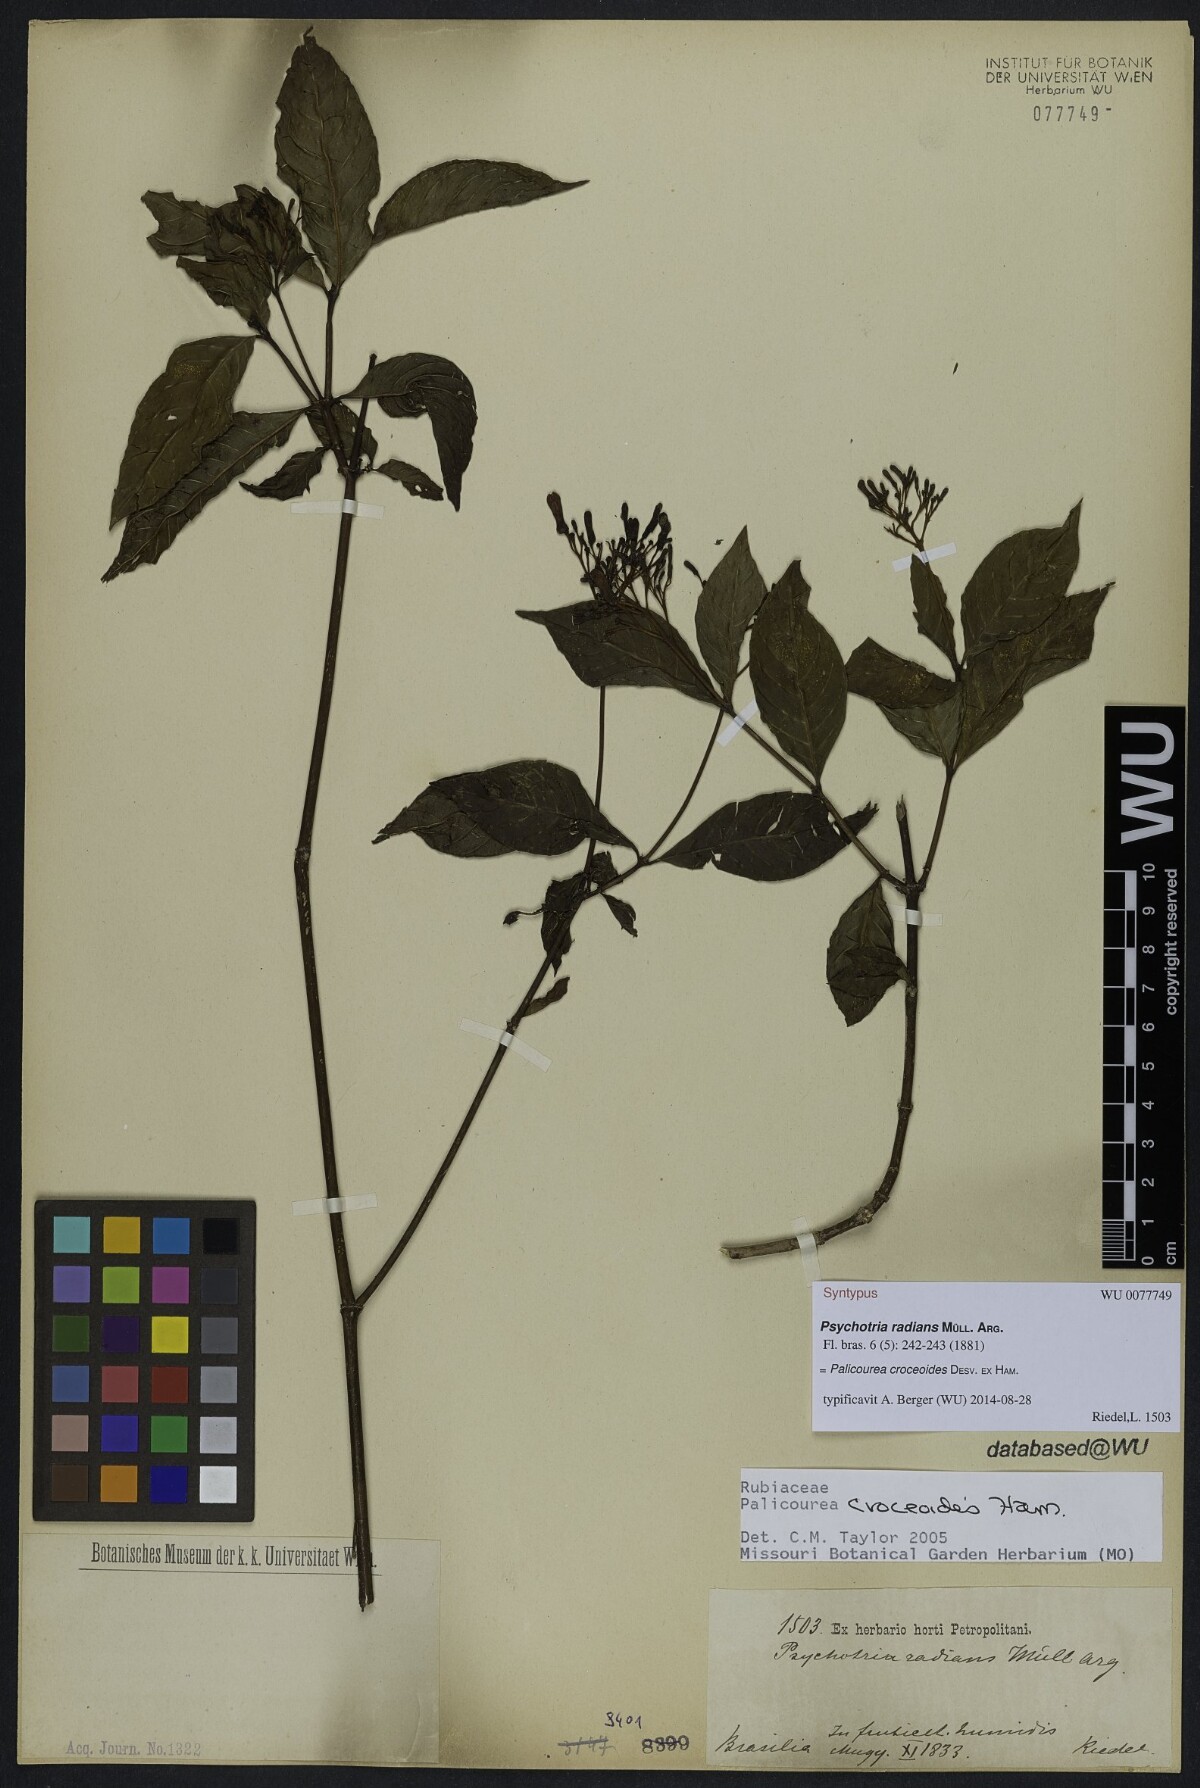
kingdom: Plantae
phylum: Tracheophyta
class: Magnoliopsida
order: Gentianales
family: Rubiaceae
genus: Palicourea
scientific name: Palicourea radians
